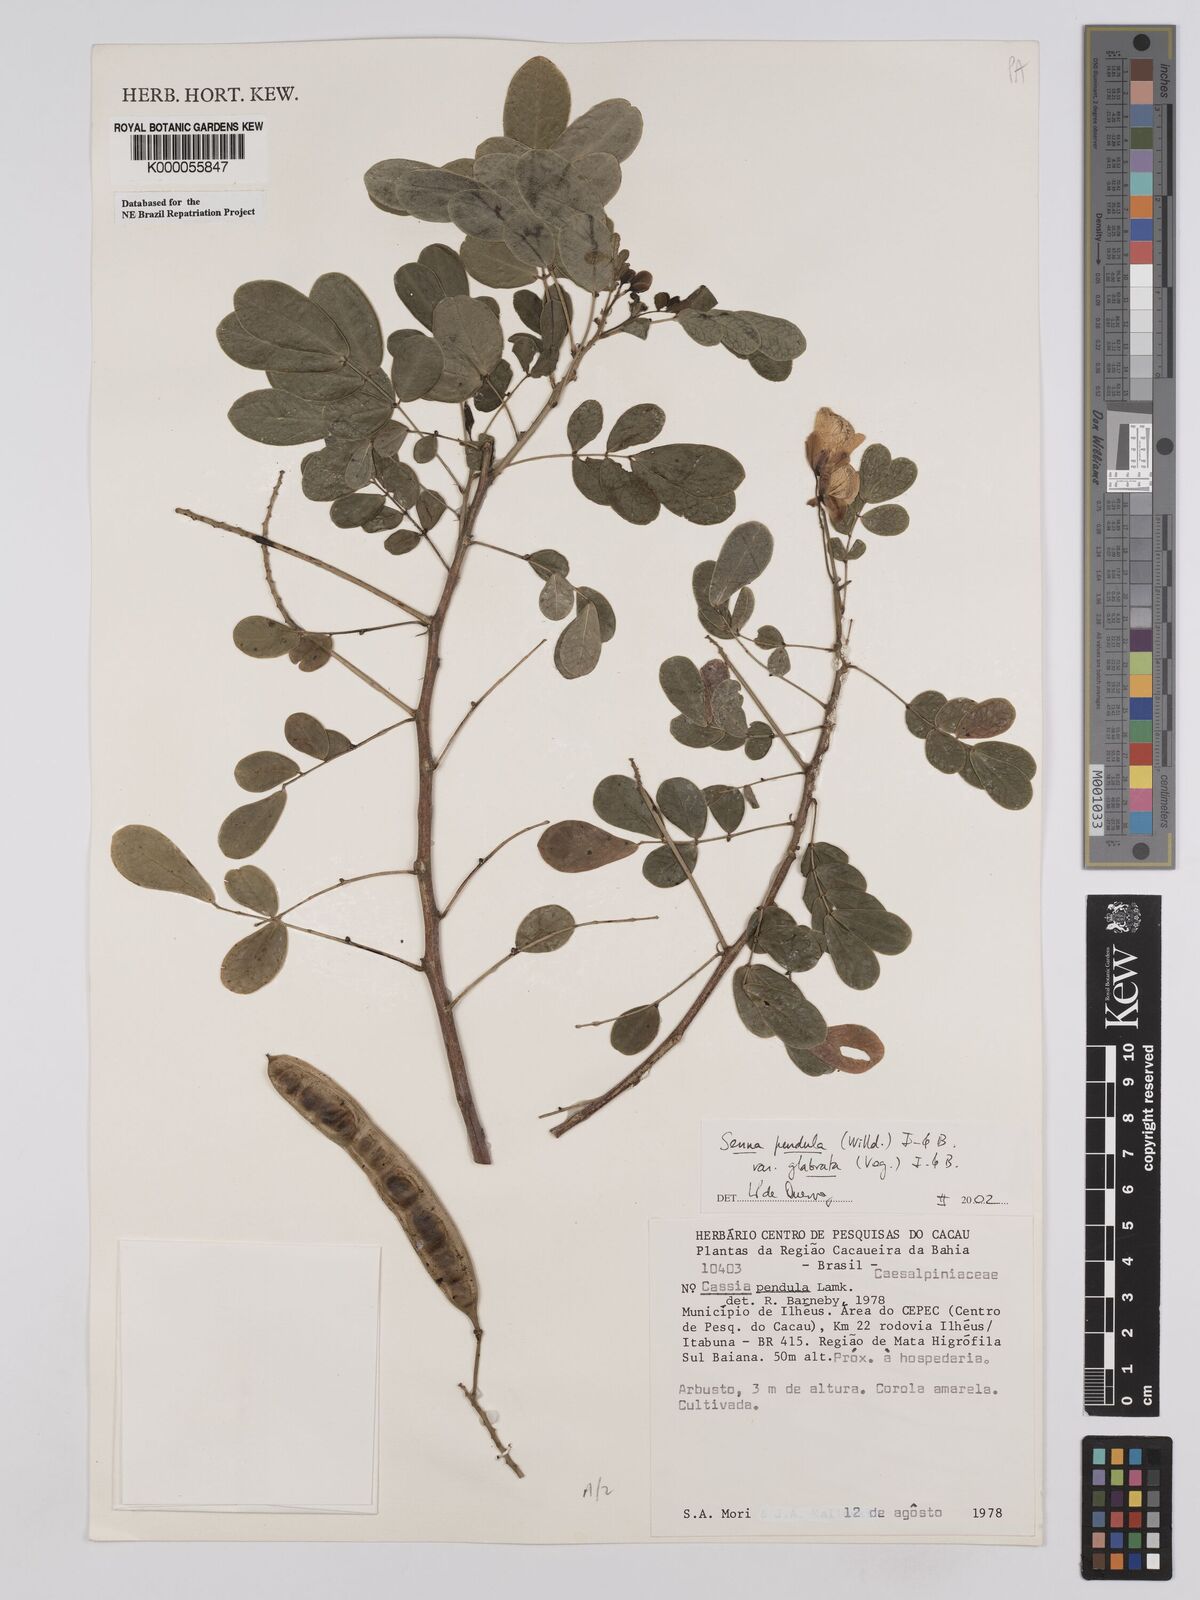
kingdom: Plantae
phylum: Tracheophyta
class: Magnoliopsida
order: Fabales
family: Fabaceae
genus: Senna
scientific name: Senna pendula
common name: Easter cassia
